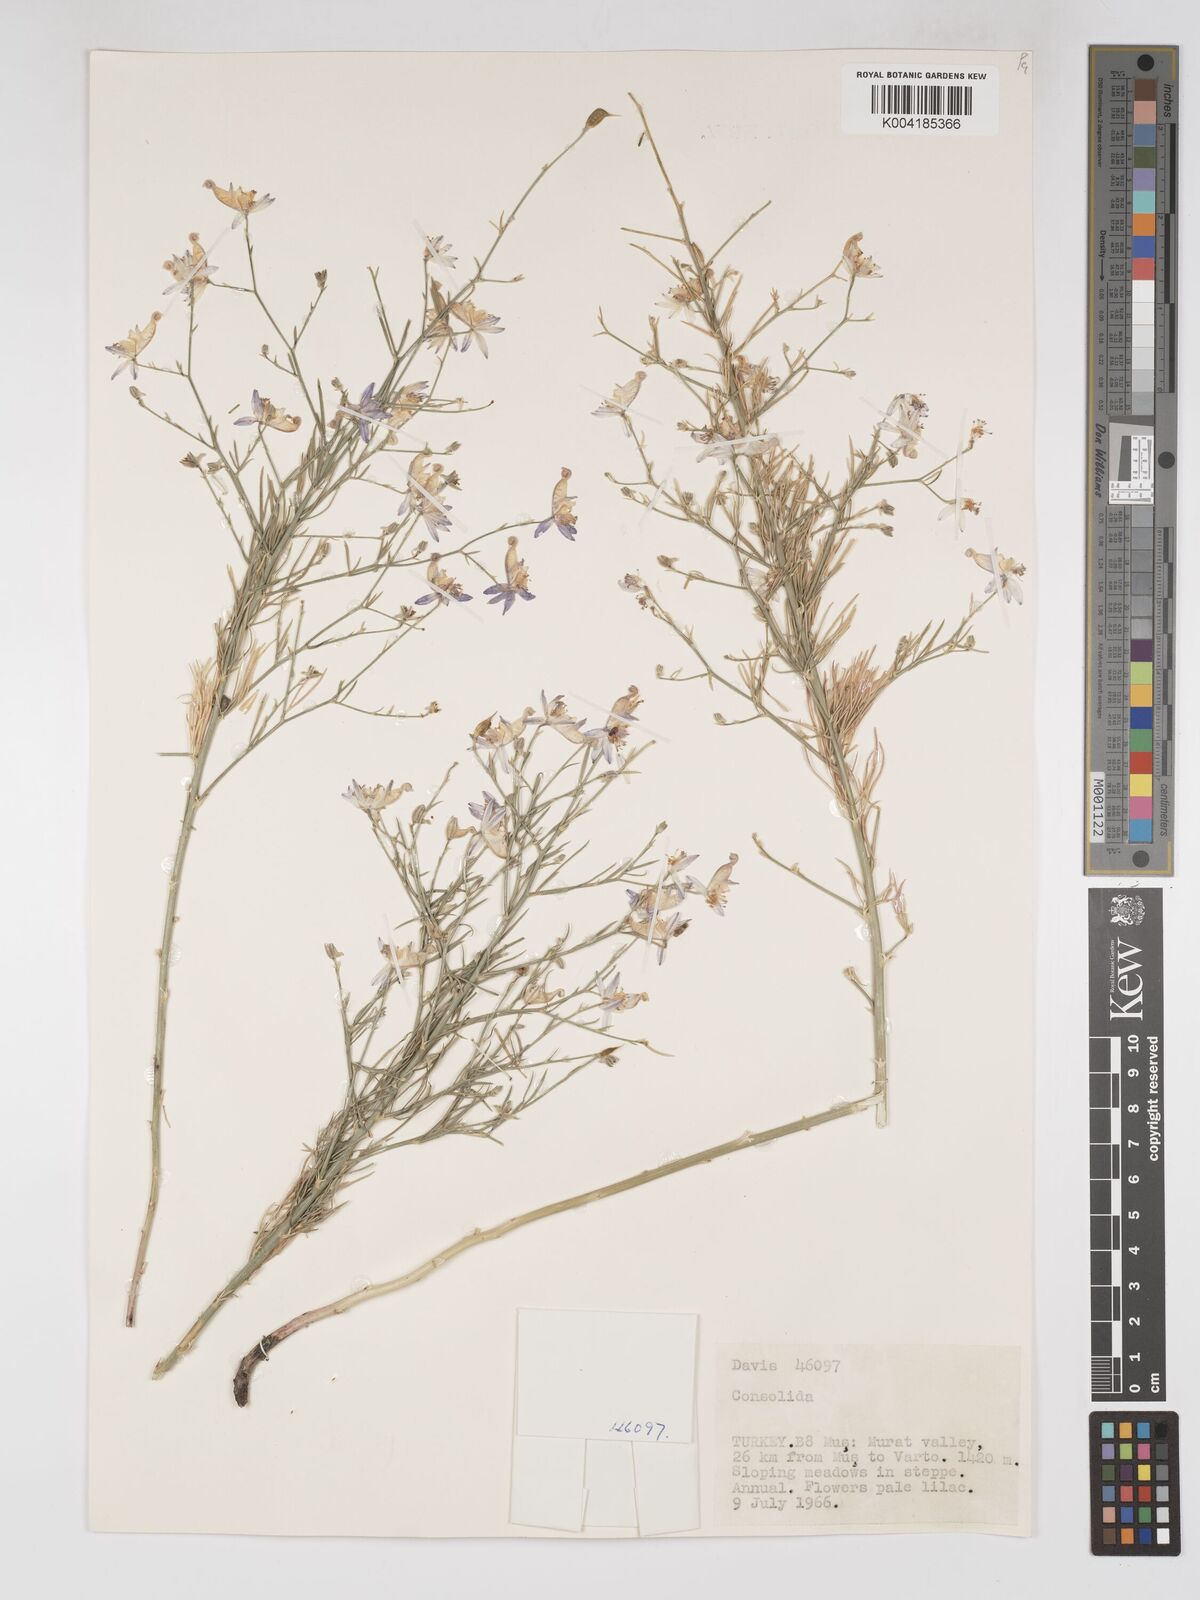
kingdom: Plantae
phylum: Tracheophyta
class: Magnoliopsida
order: Ranunculales
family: Ranunculaceae
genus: Delphinium
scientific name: Delphinium
